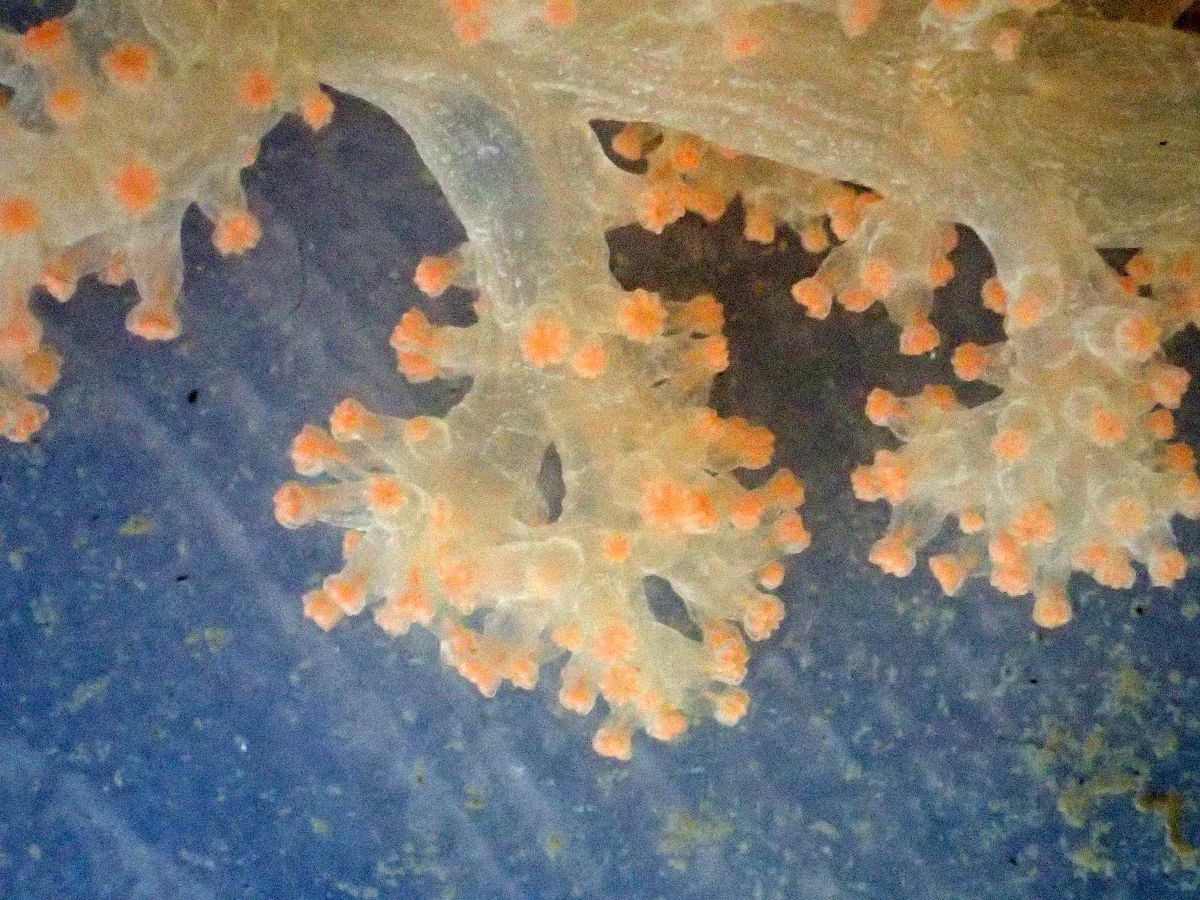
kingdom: Animalia
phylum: Cnidaria
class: Anthozoa
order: Malacalcyonacea
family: Alcyoniidae
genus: Gersemia
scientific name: Gersemia fruticosa
